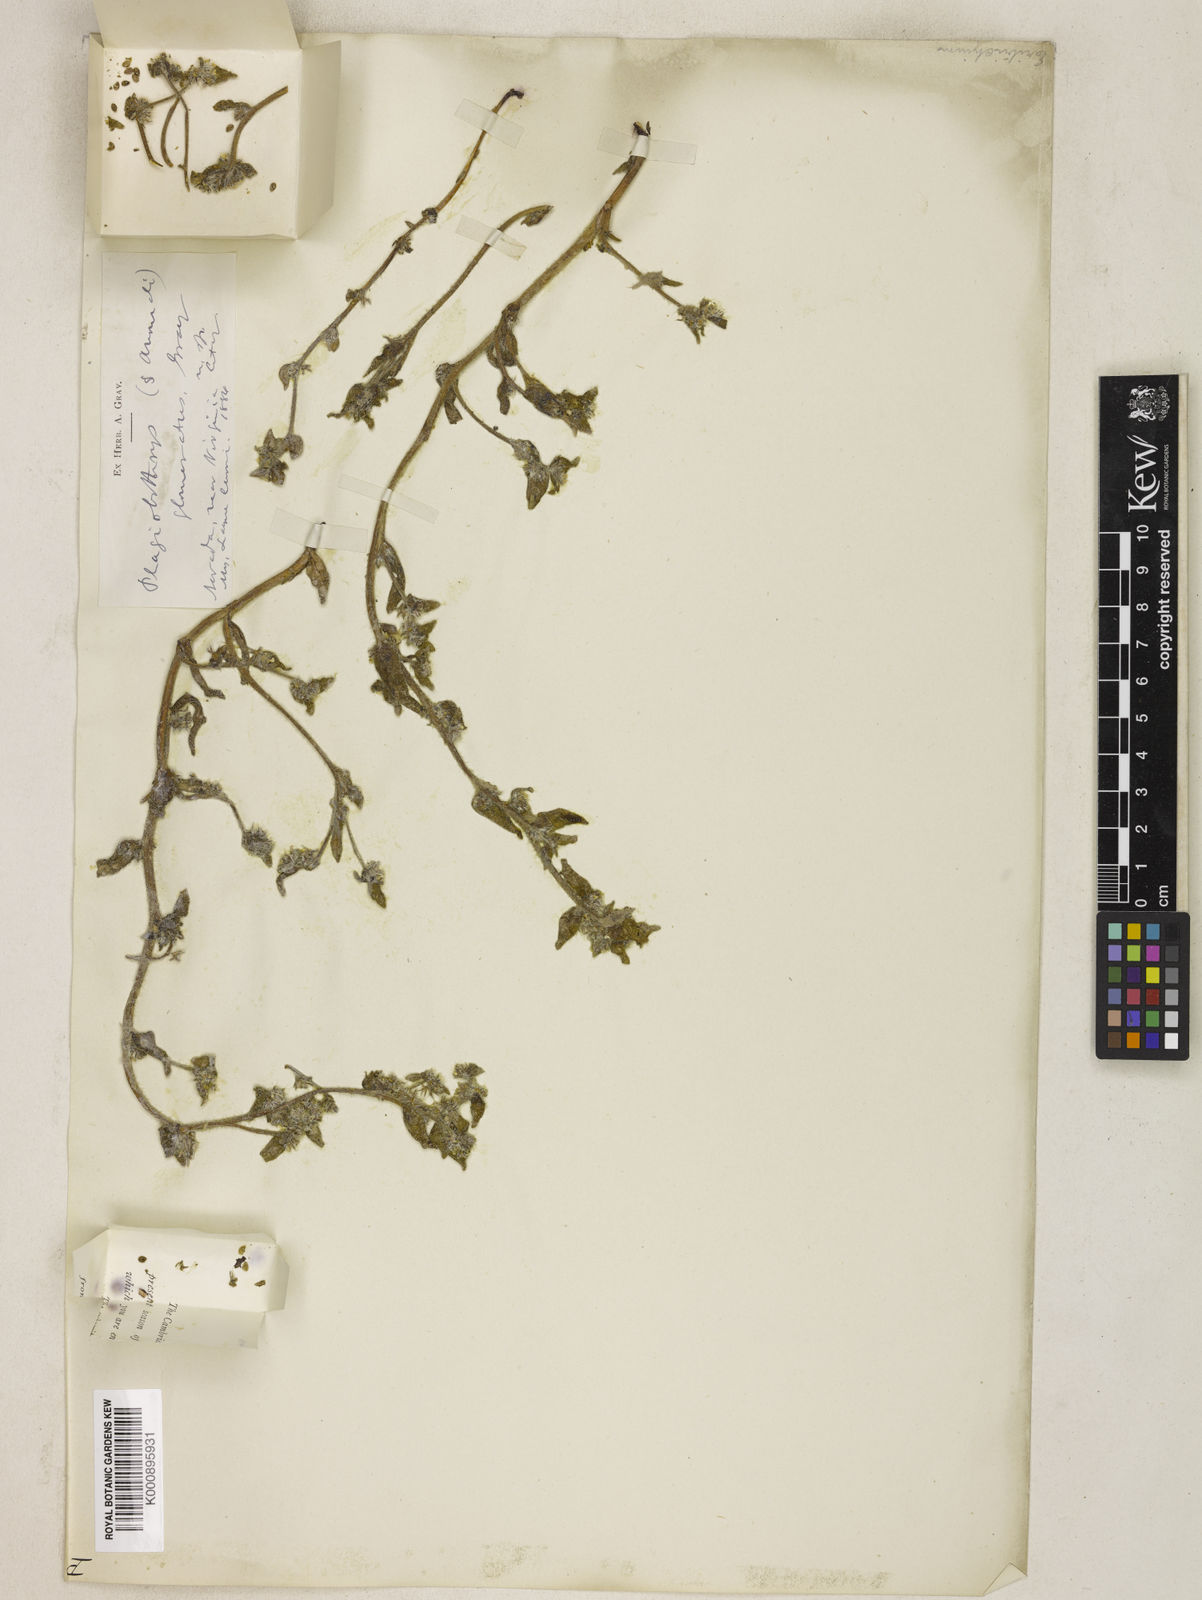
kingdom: Plantae
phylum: Tracheophyta
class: Magnoliopsida
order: Boraginales
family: Boraginaceae
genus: Plagiobothrys
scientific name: Plagiobothrys glomeratus
